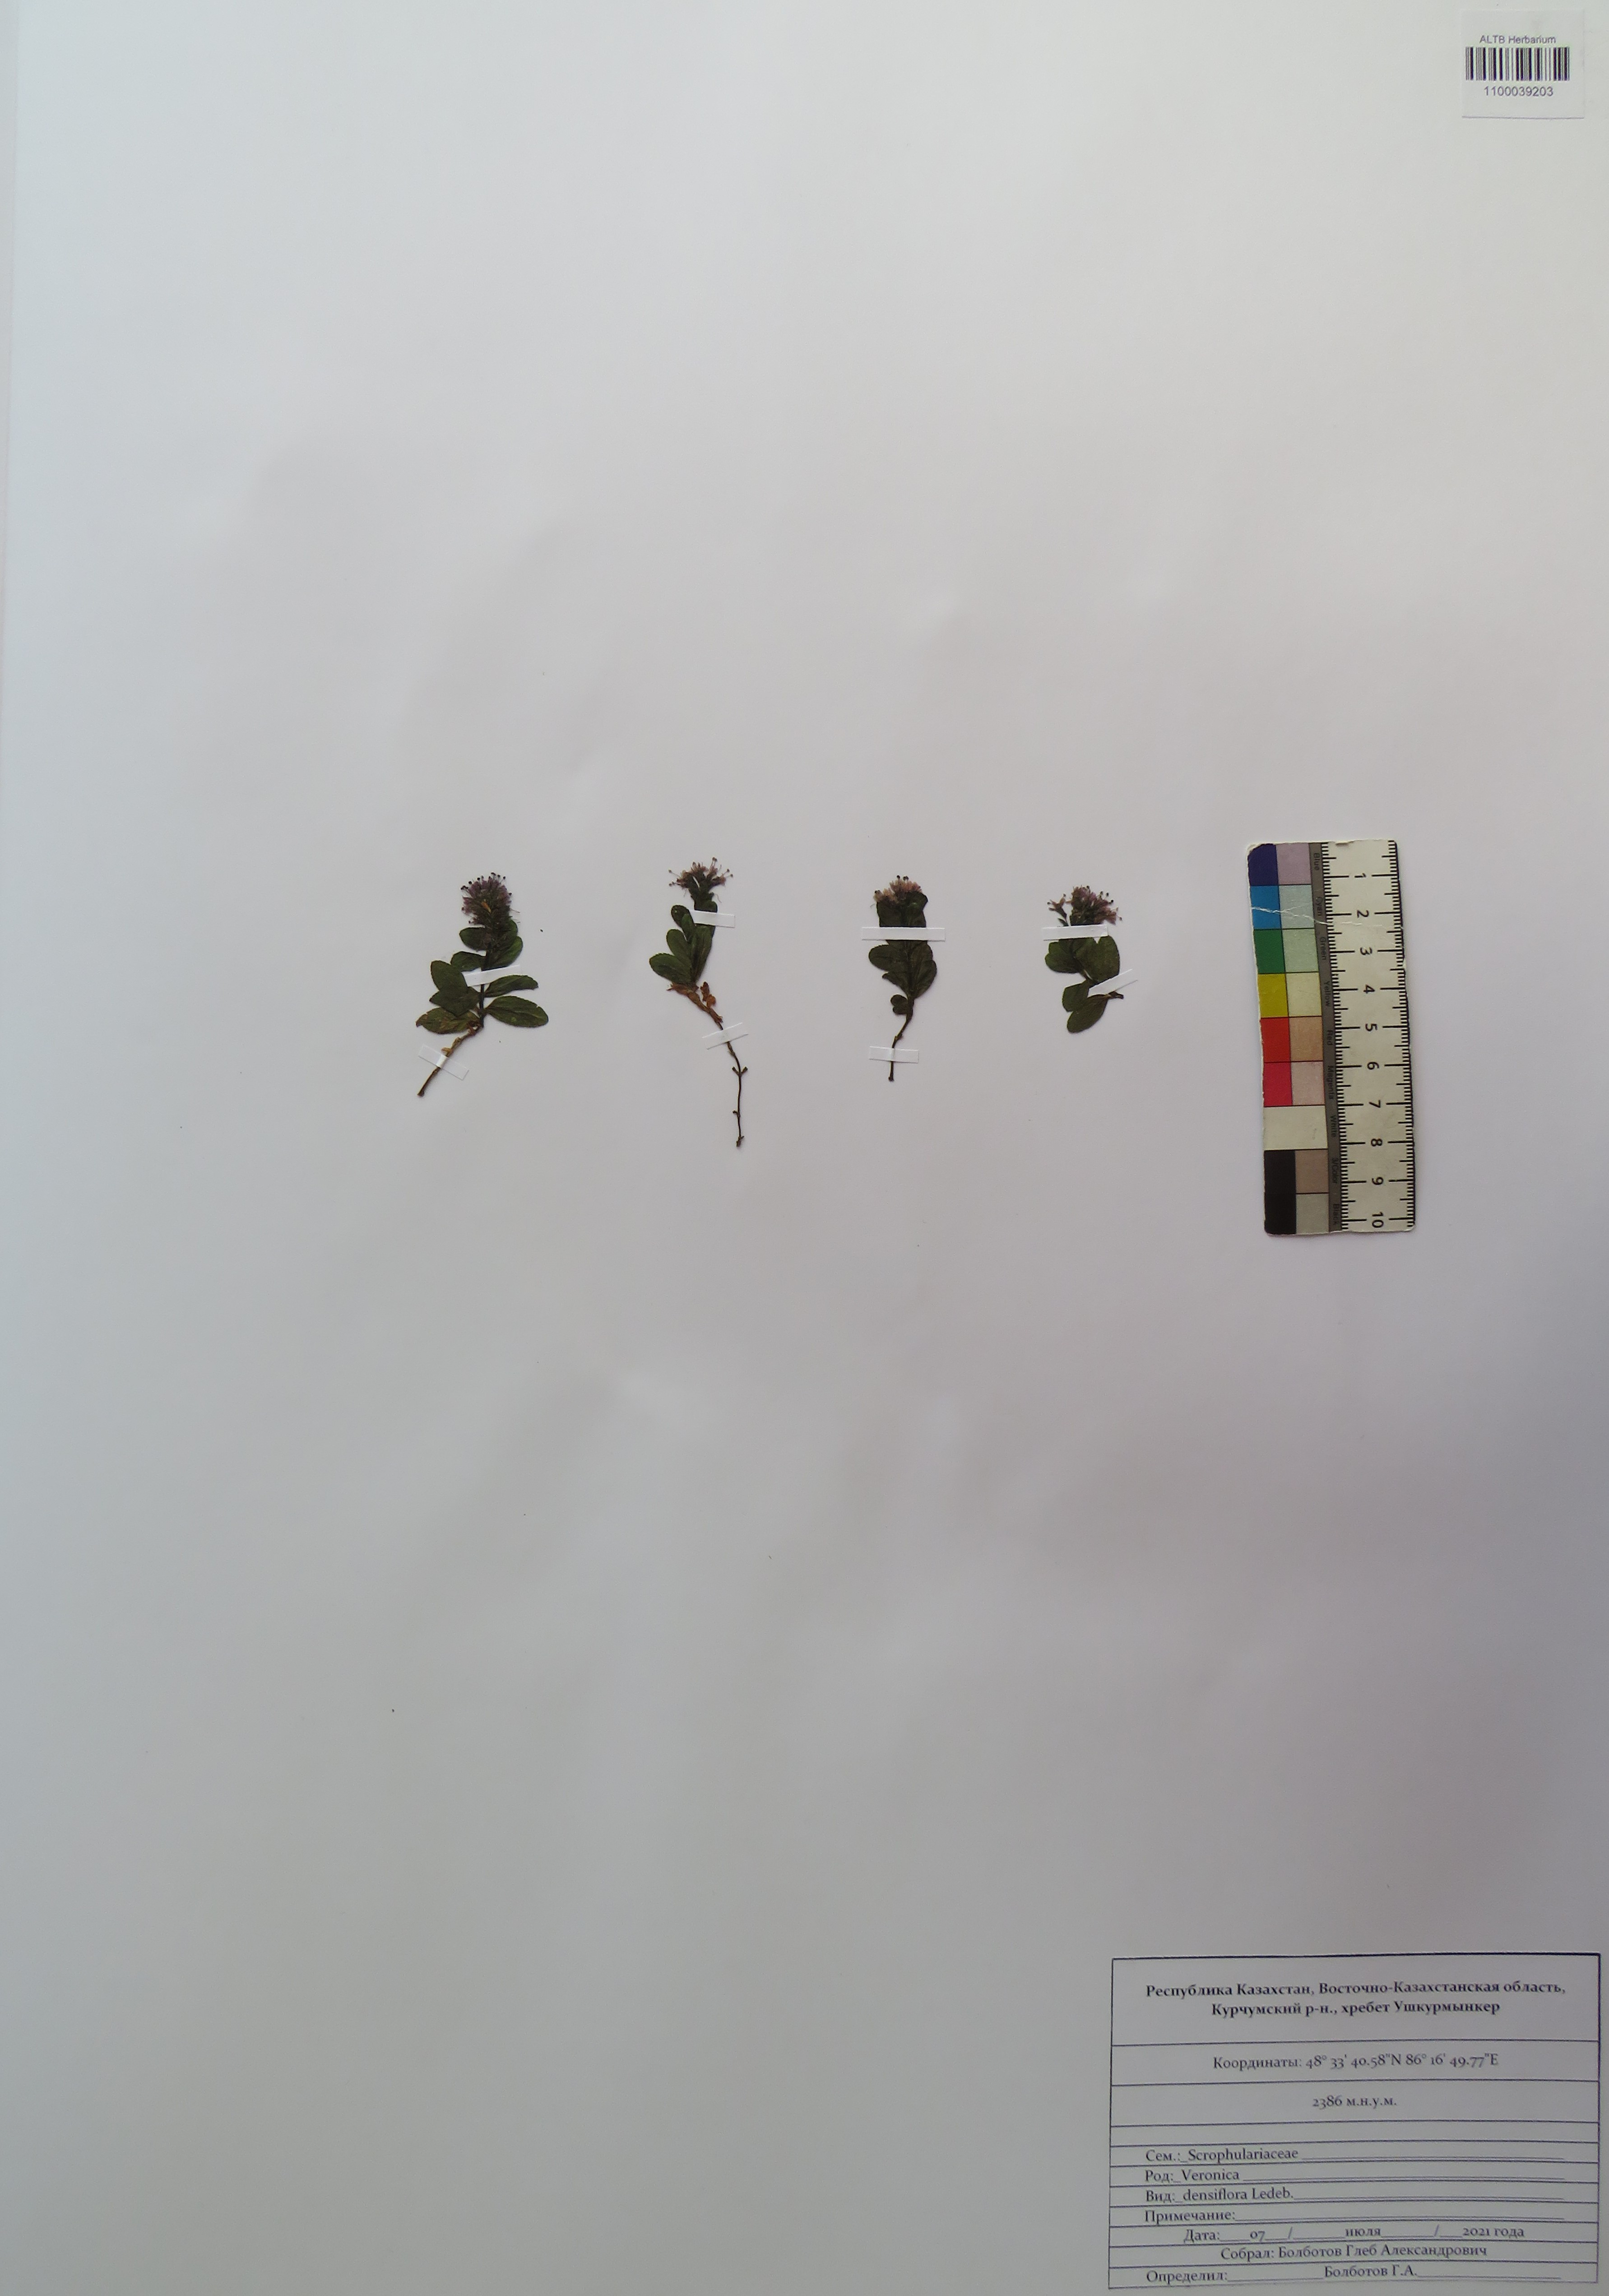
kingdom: Plantae
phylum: Tracheophyta
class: Magnoliopsida
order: Lamiales
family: Plantaginaceae
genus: Veronica
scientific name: Veronica densiflora
